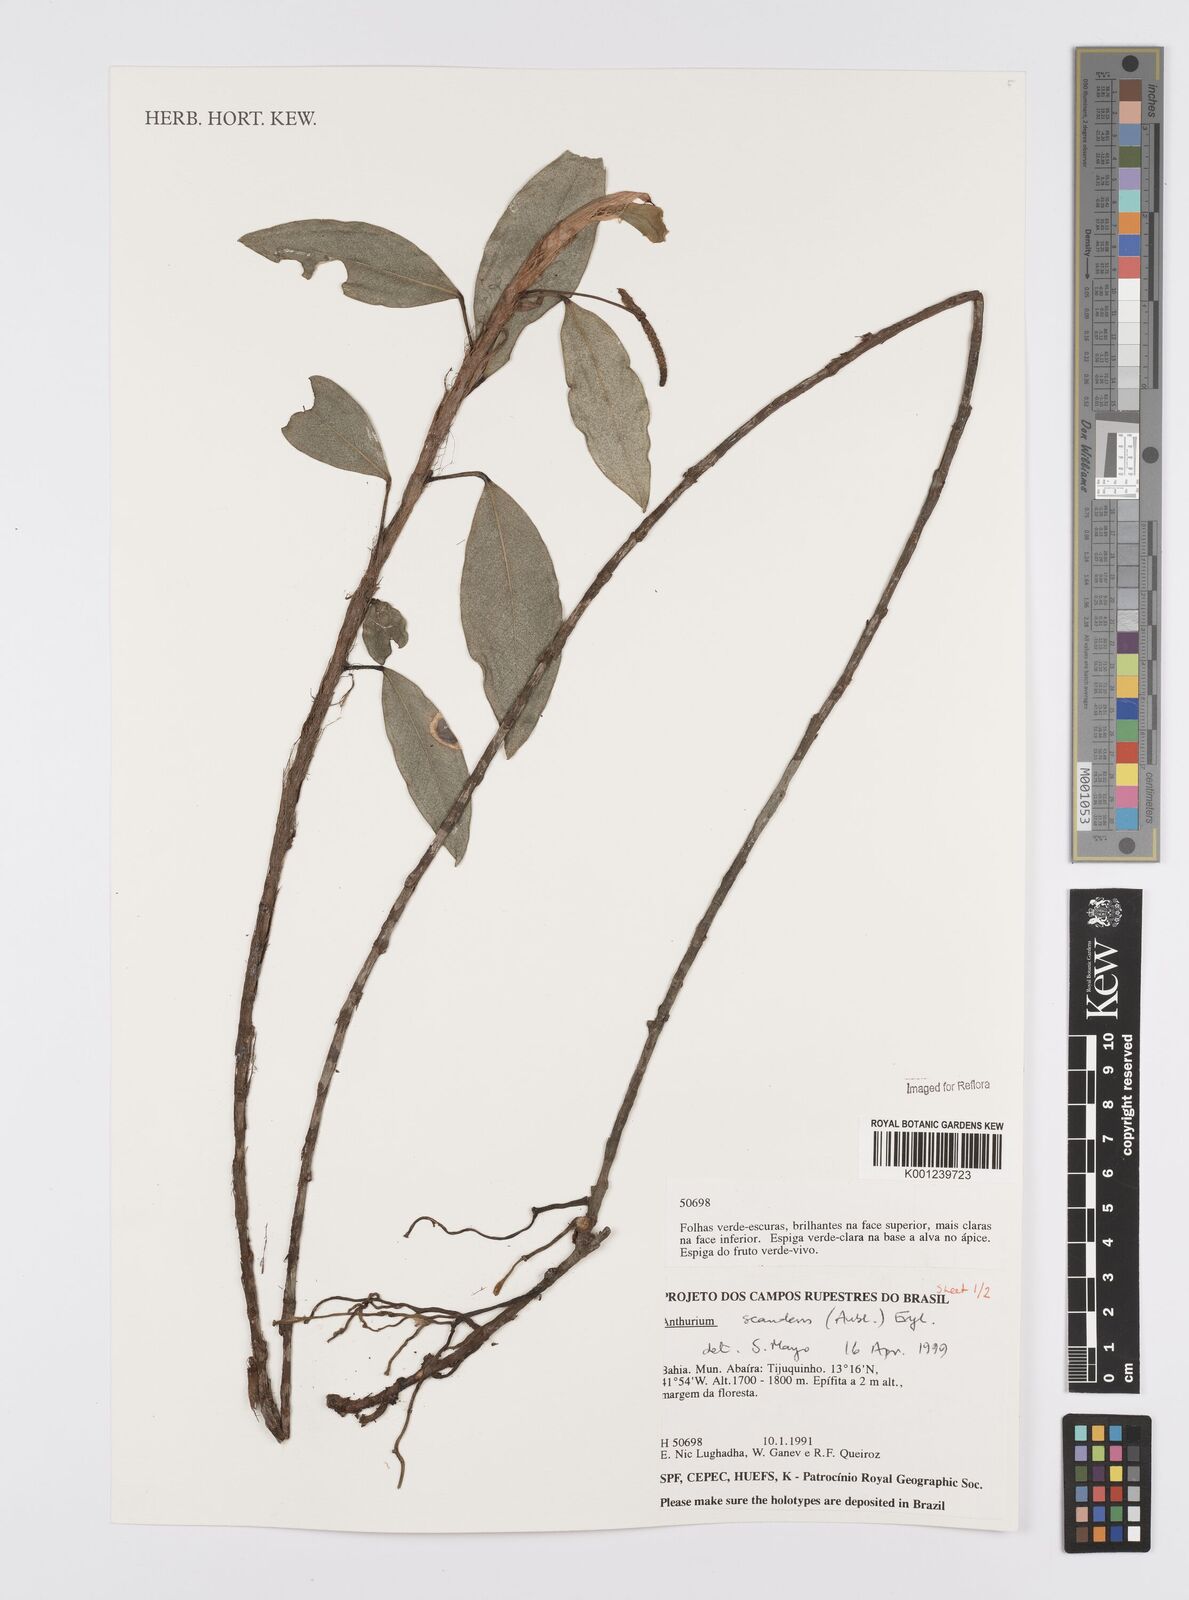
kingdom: Plantae
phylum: Tracheophyta
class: Liliopsida
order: Alismatales
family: Araceae
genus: Anthurium
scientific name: Anthurium scandens
